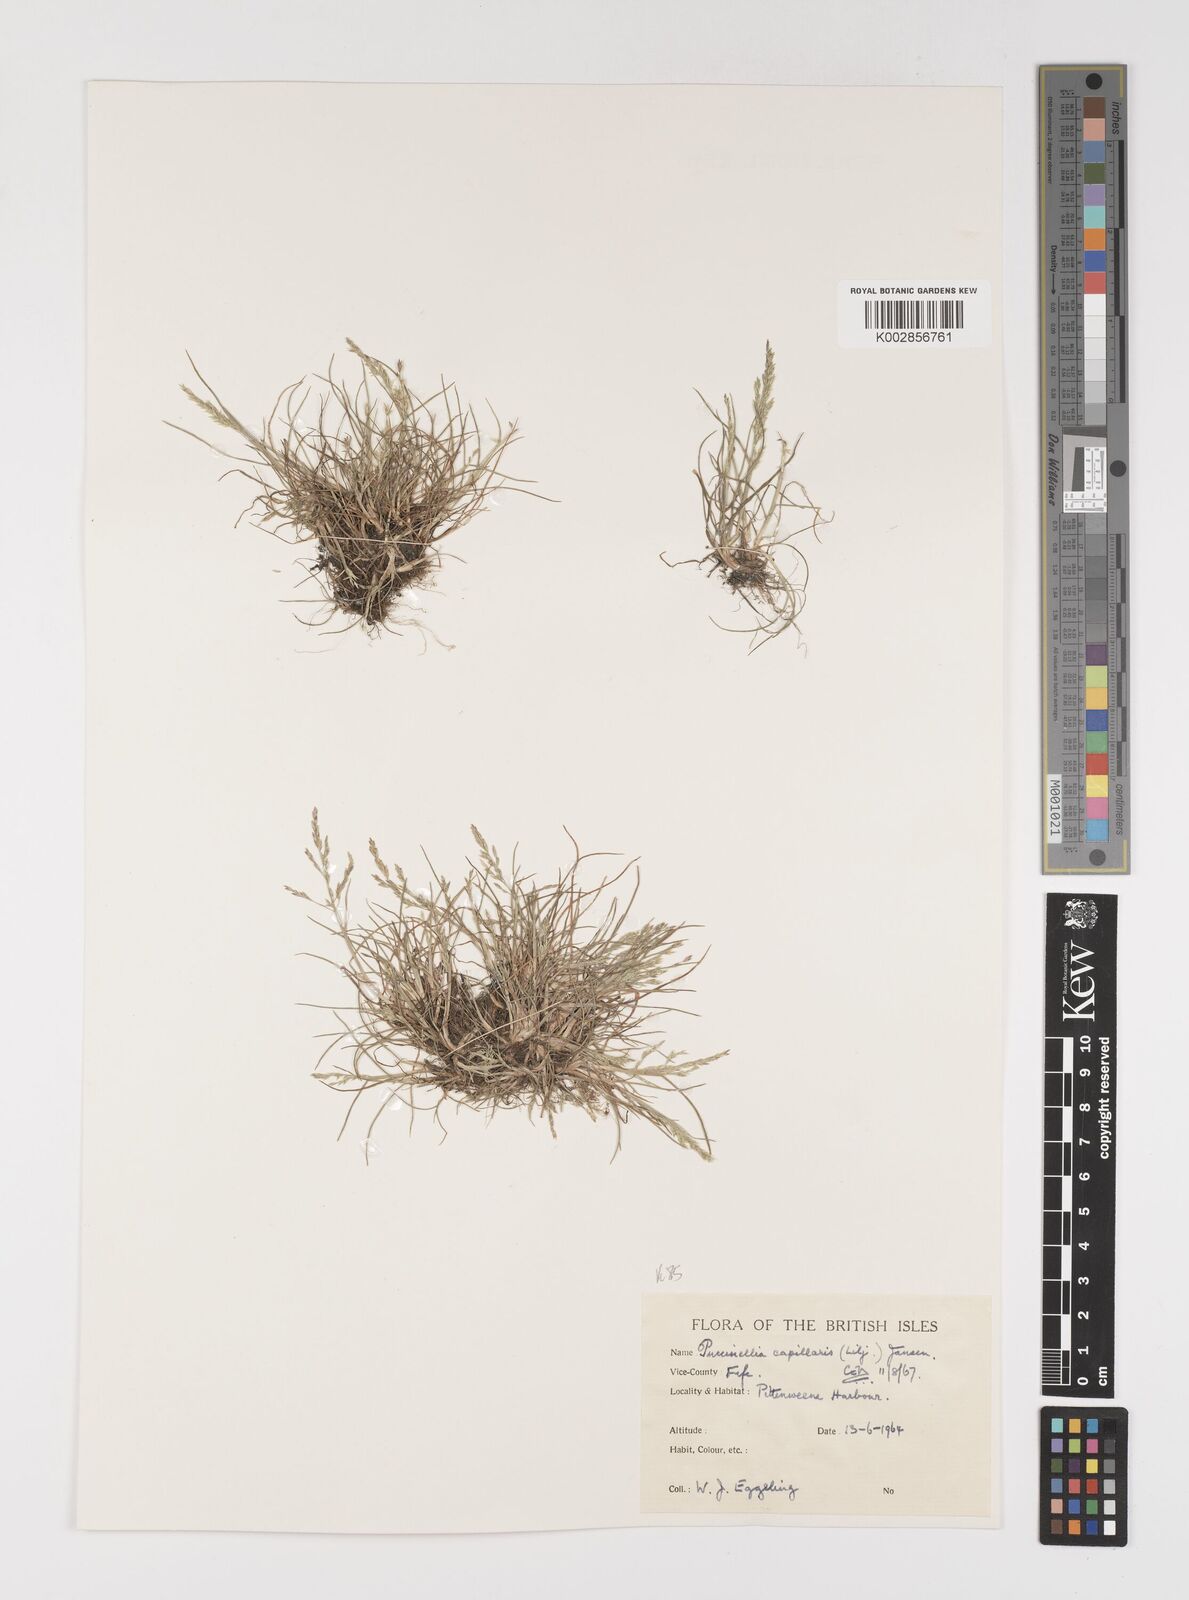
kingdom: Plantae
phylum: Tracheophyta
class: Liliopsida
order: Poales
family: Poaceae
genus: Puccinellia
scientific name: Puccinellia distans
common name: Weeping alkaligrass
